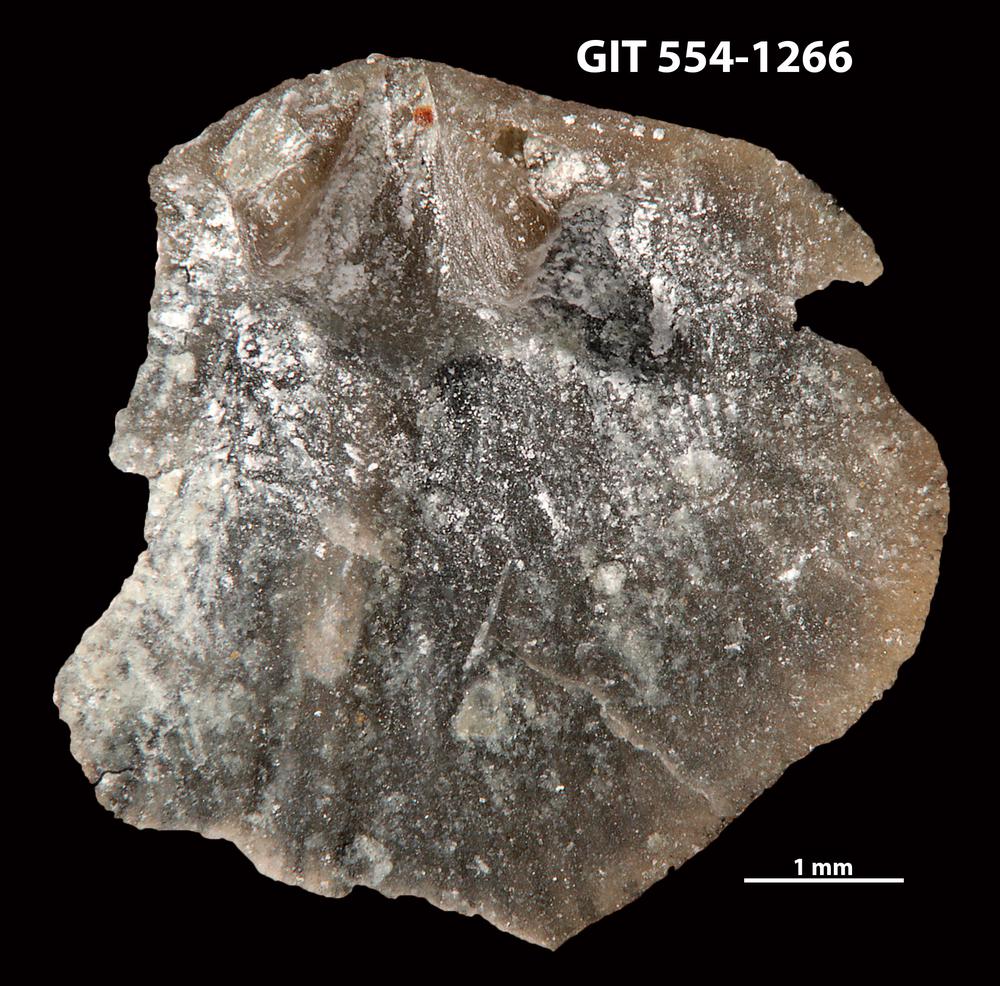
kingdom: Animalia
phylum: Brachiopoda
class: Rhynchonellata
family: Rhipidomellidae
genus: Mendacella
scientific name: Mendacella circularis
